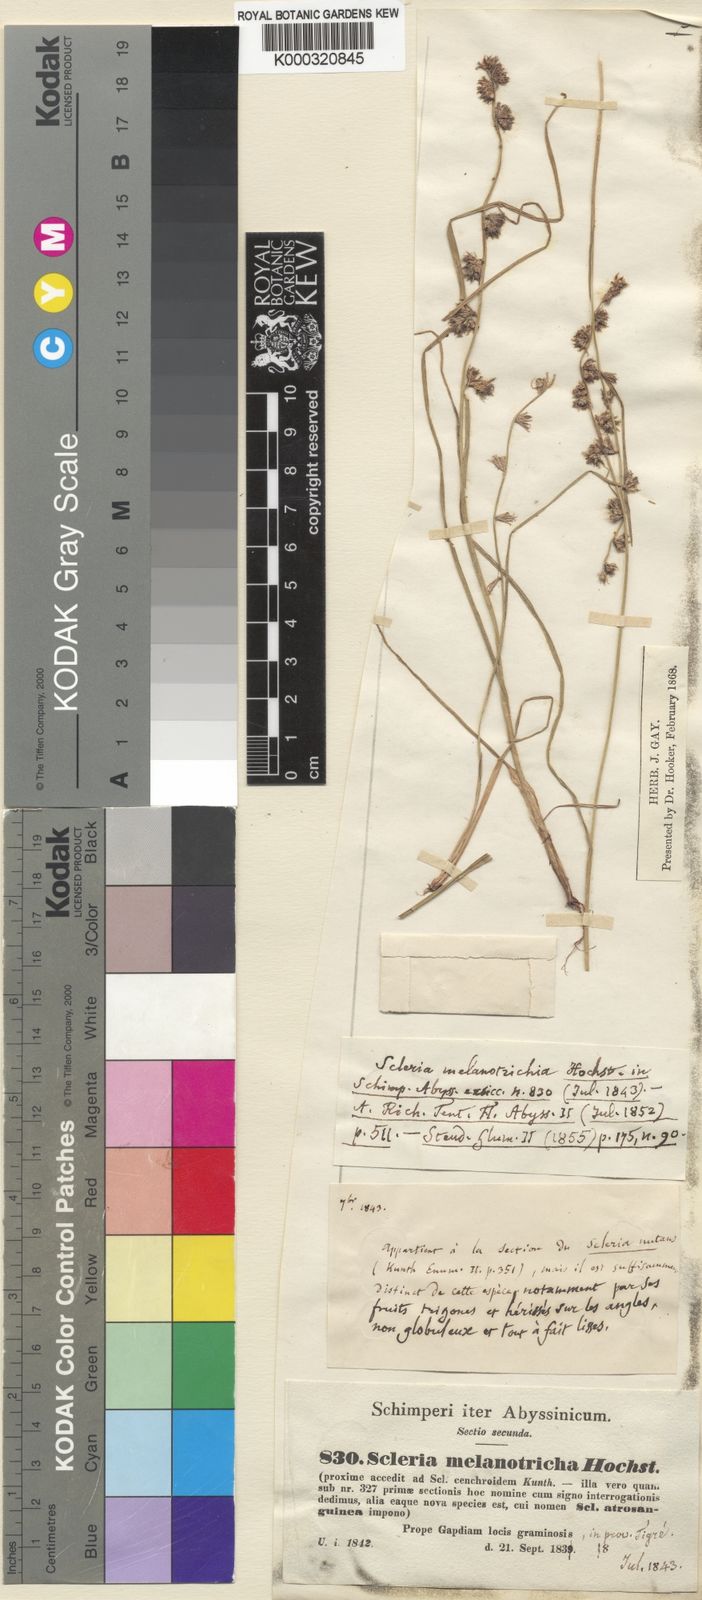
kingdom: Plantae
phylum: Tracheophyta
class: Liliopsida
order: Poales
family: Cyperaceae
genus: Scleria
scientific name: Scleria melanotricha
